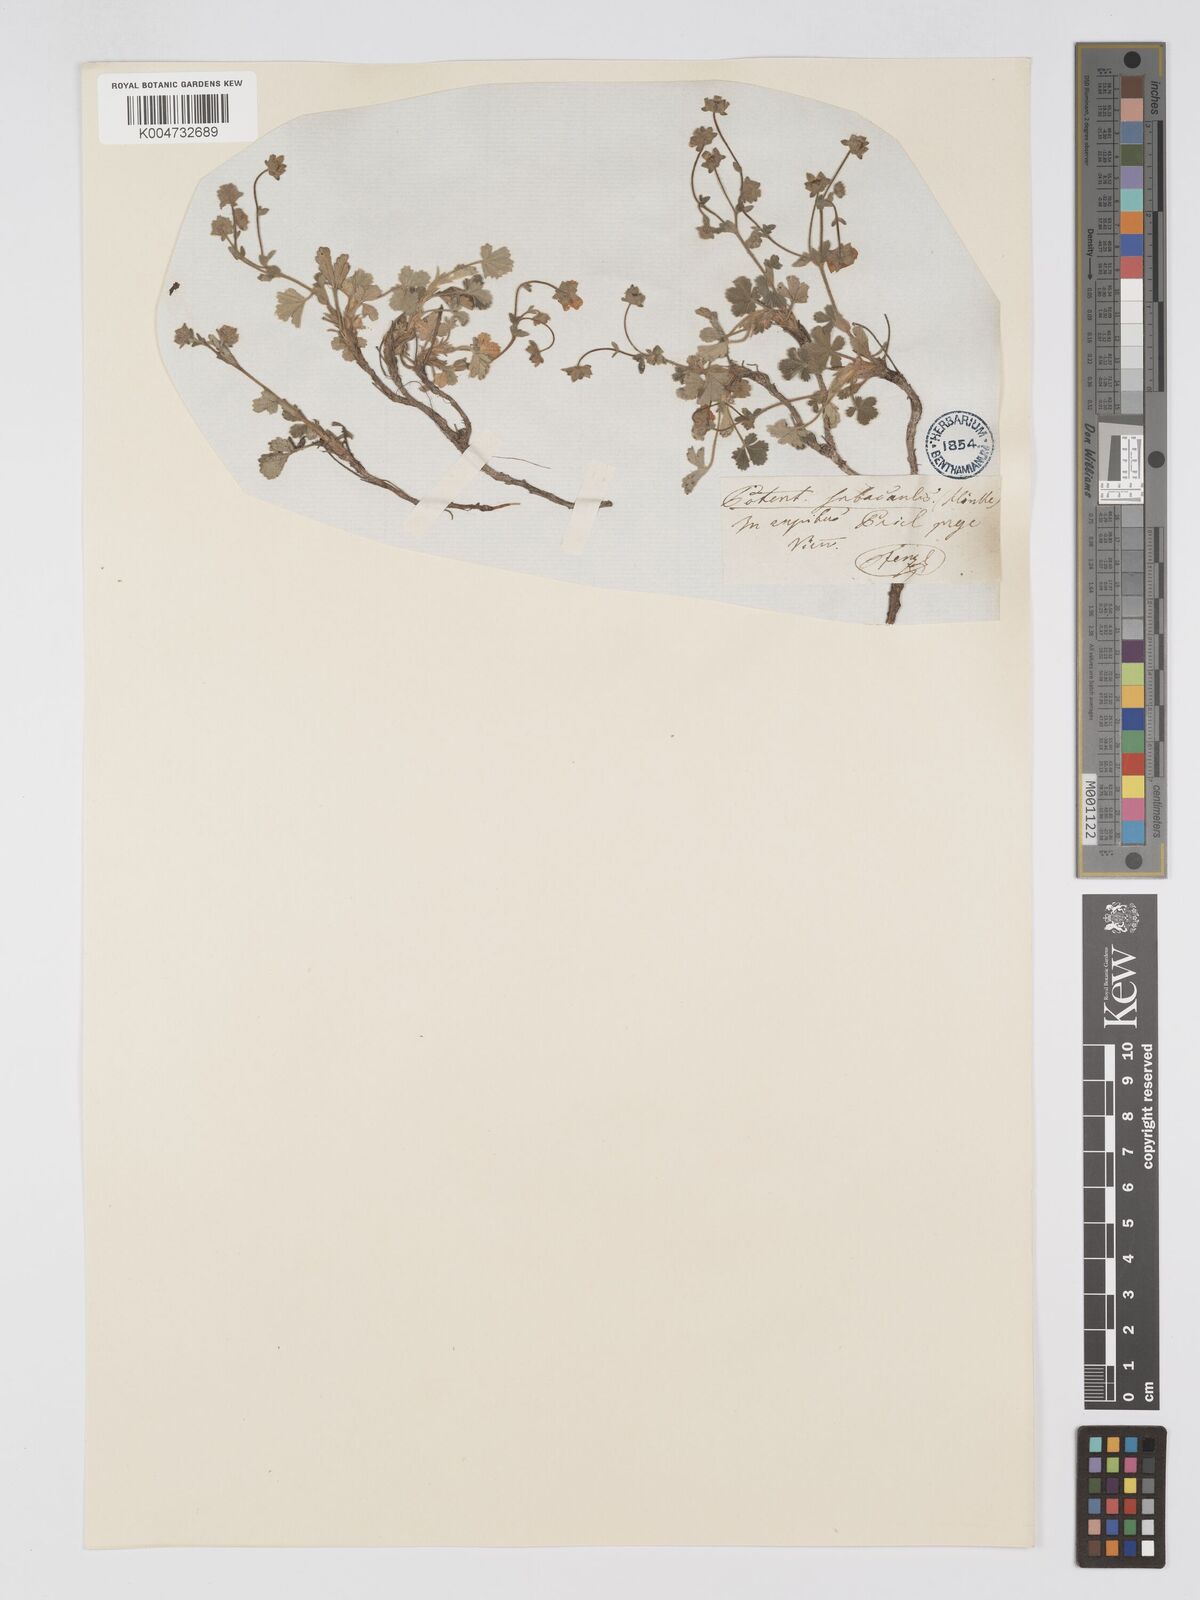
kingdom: Plantae
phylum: Tracheophyta
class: Magnoliopsida
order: Rosales
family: Rosaceae
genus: Potentilla
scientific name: Potentilla cinerea
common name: Ashy cinquefoil
